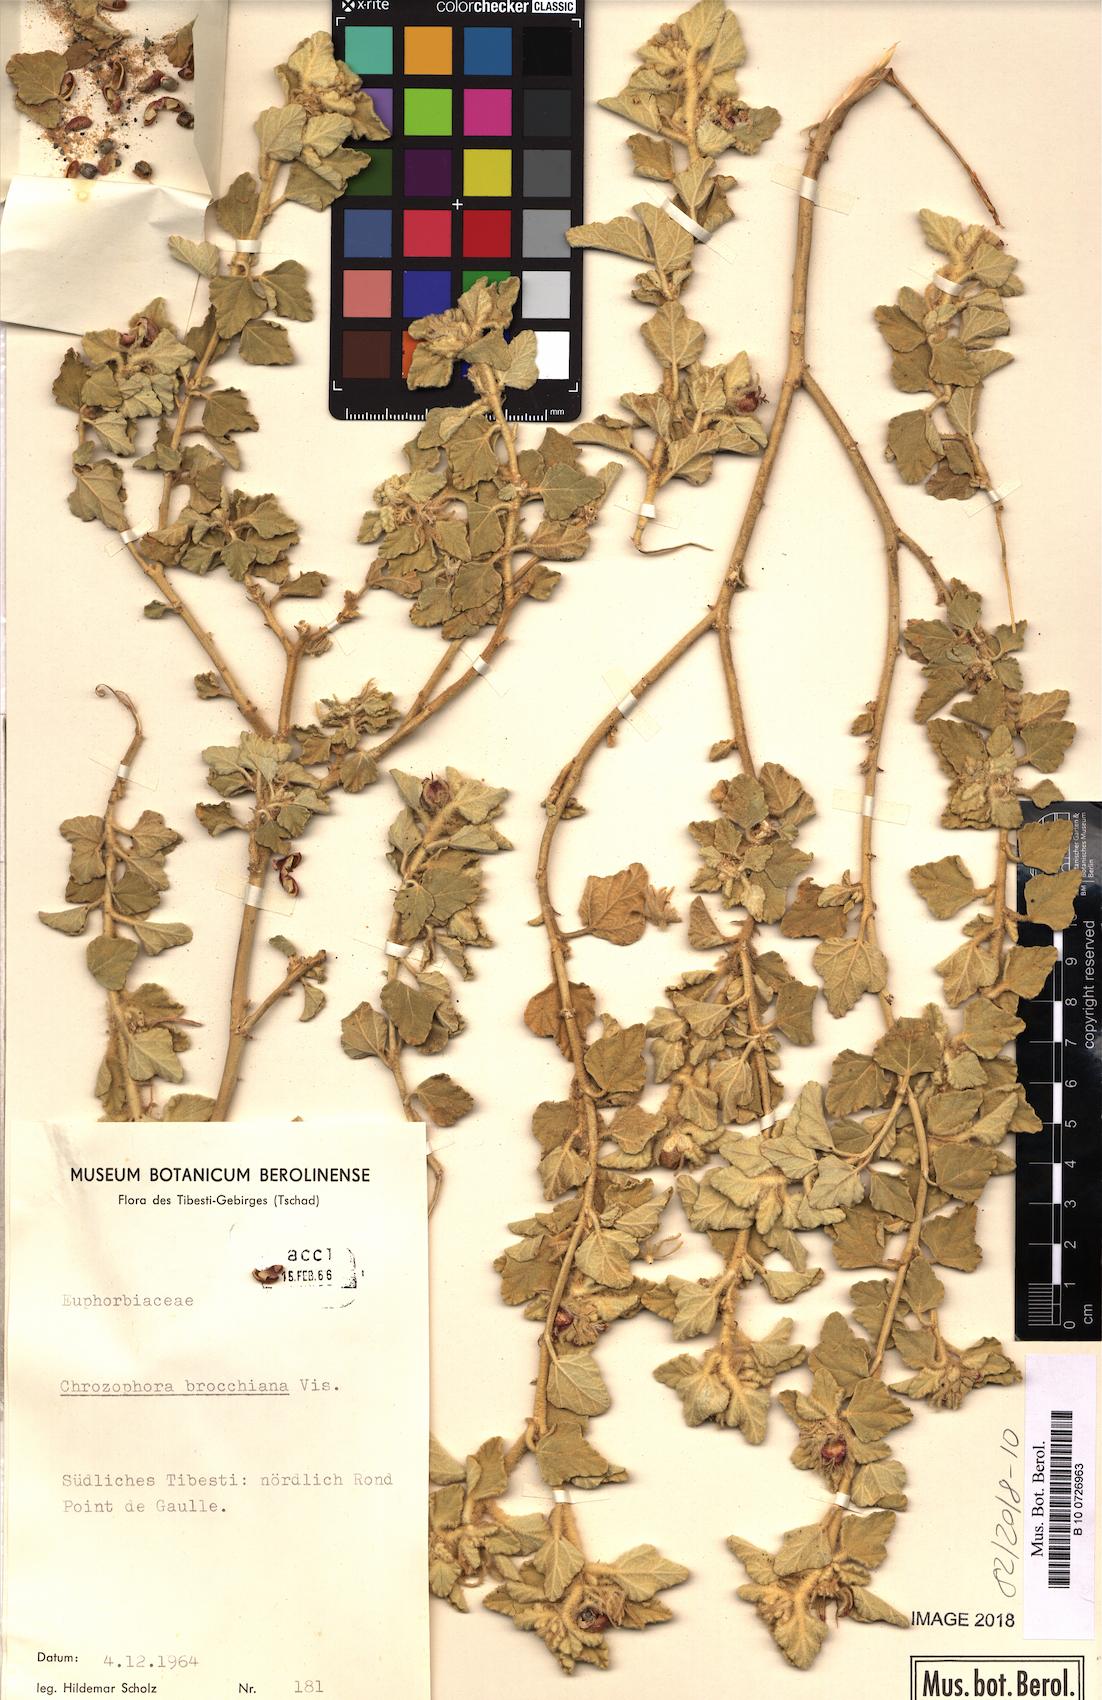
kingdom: Plantae
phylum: Tracheophyta
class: Magnoliopsida
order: Malpighiales
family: Euphorbiaceae
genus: Chrozophora
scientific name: Chrozophora brocchiana
